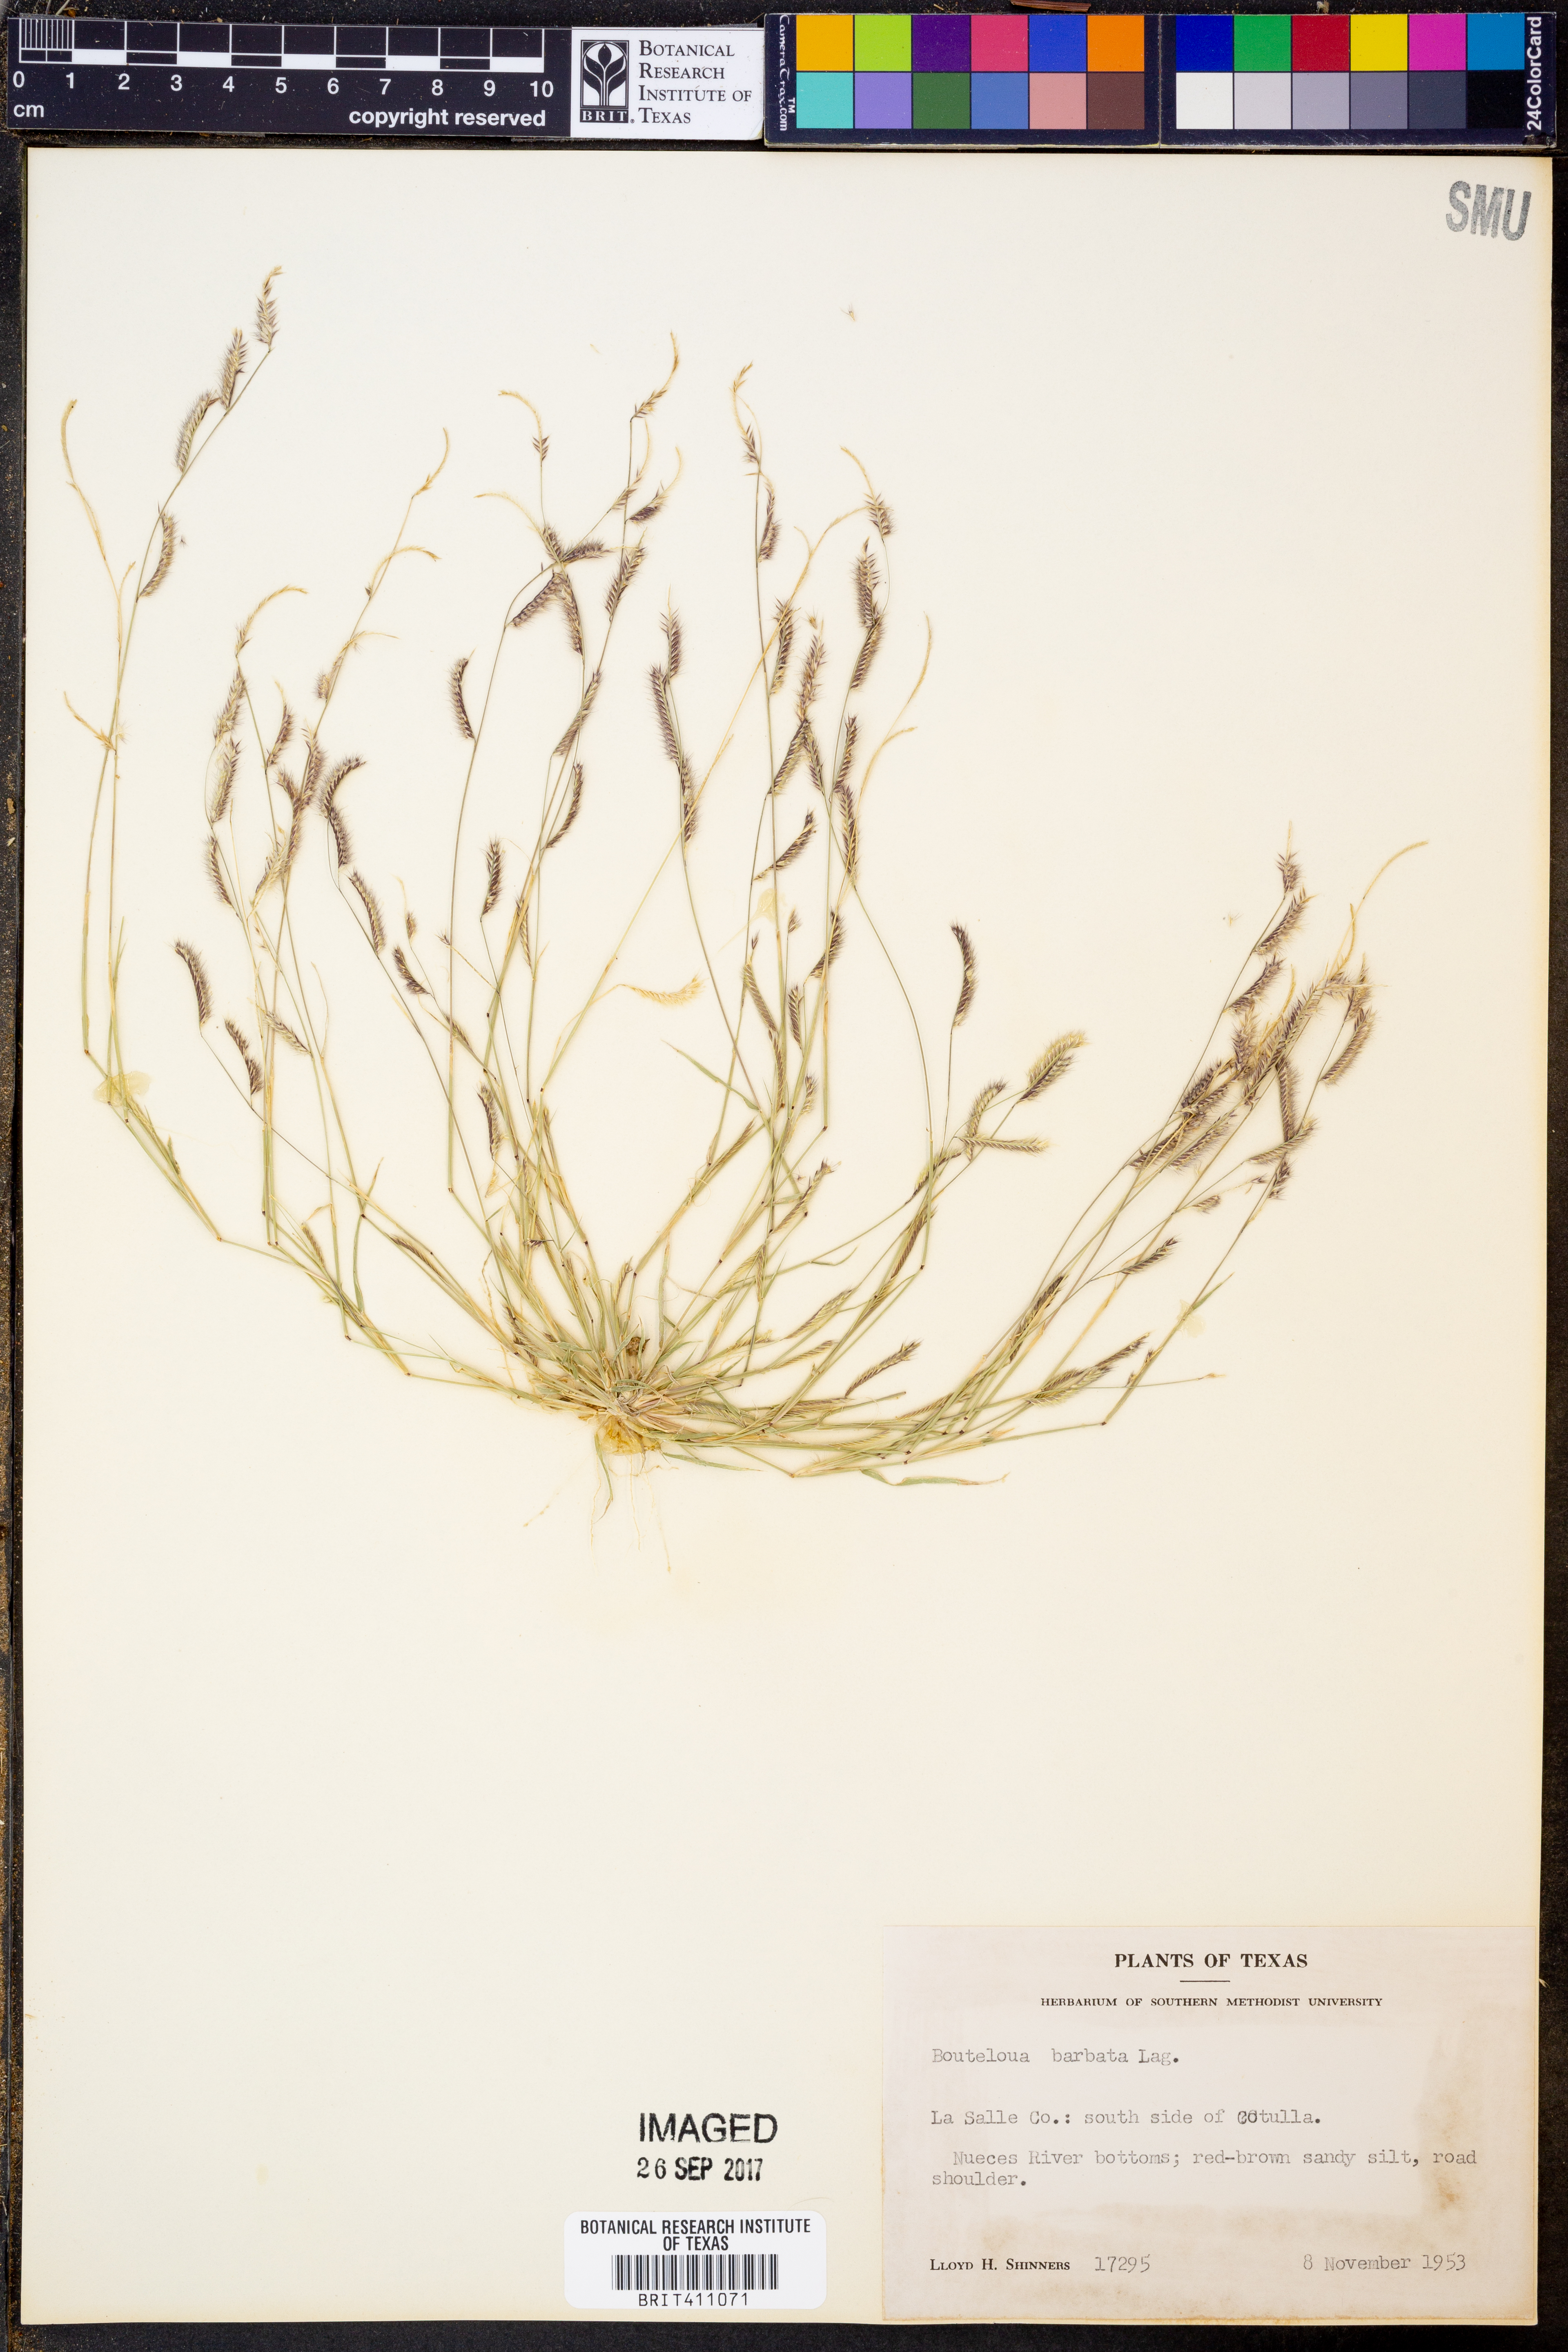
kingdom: Plantae
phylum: Tracheophyta
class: Liliopsida
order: Poales
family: Poaceae
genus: Bouteloua
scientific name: Bouteloua barbata
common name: Six-weeks grama
